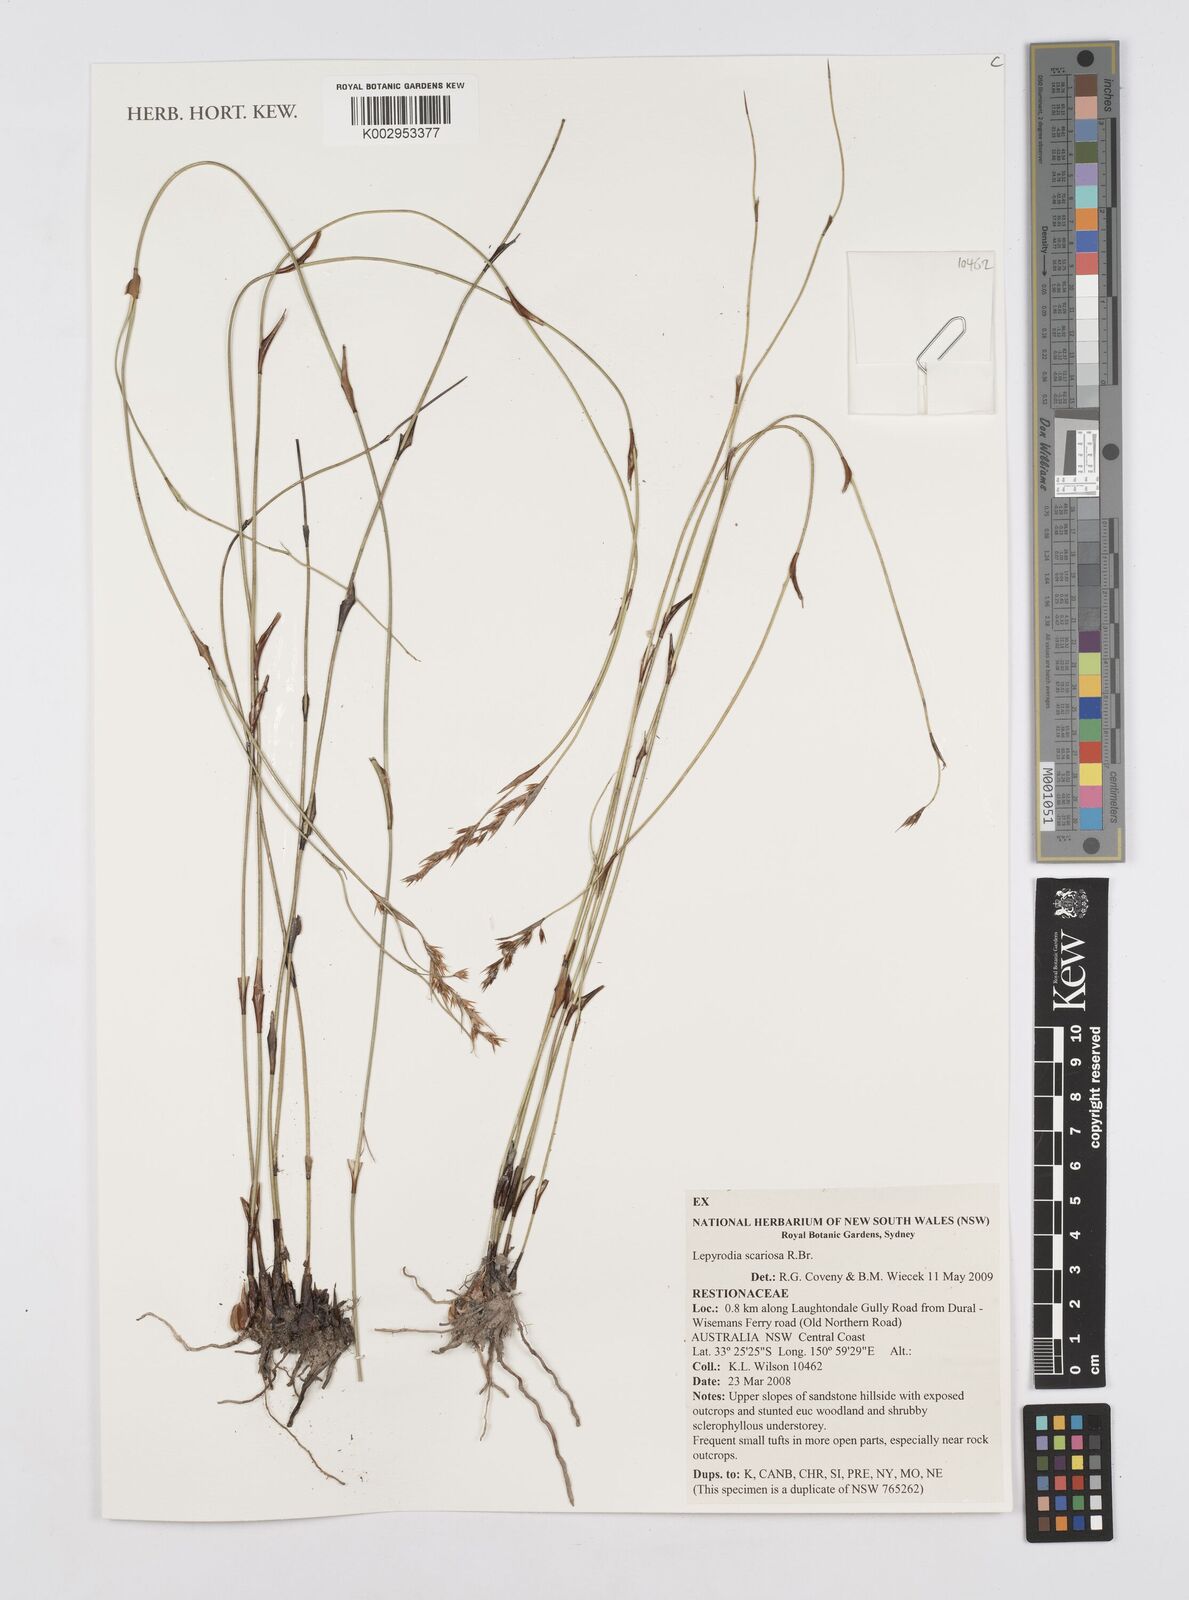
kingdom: Plantae
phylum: Tracheophyta
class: Liliopsida
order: Poales
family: Restionaceae
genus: Lepyrodia
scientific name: Lepyrodia scariosa
